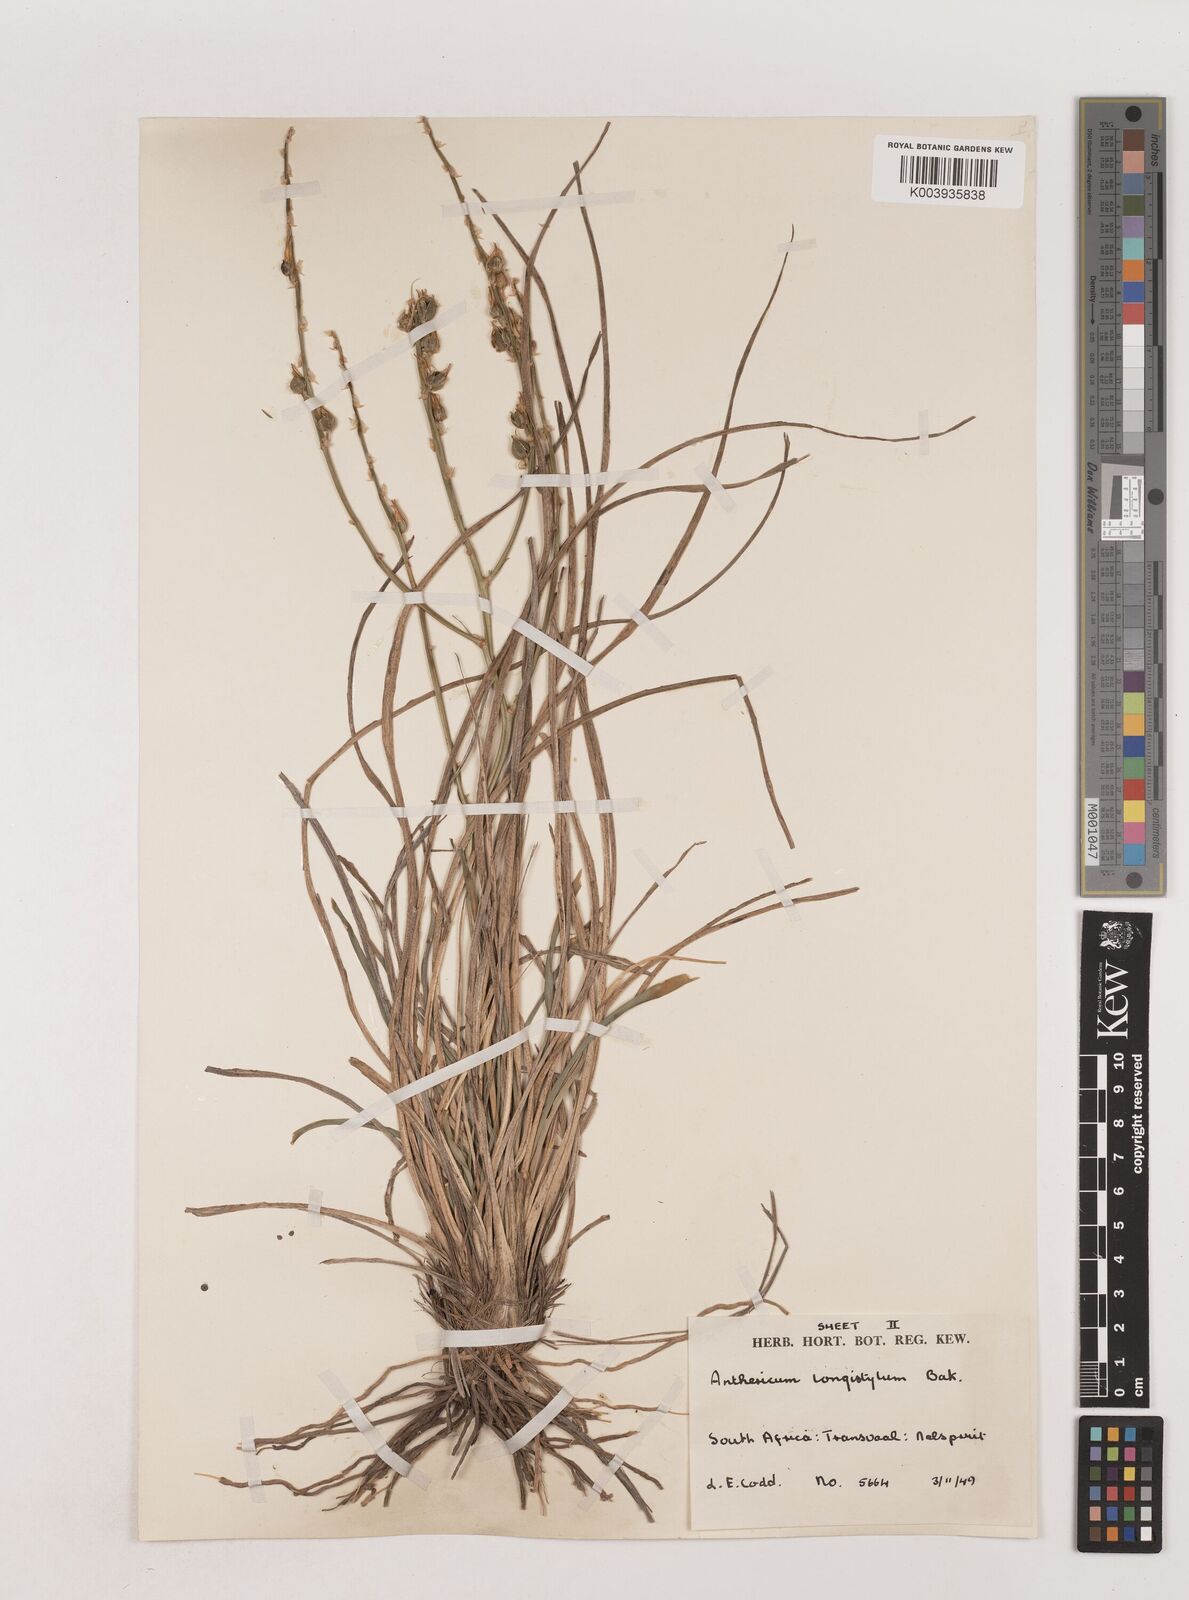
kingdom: Plantae
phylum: Tracheophyta
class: Liliopsida
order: Asparagales
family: Asparagaceae
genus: Chlorophytum
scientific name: Chlorophytum recurvifolium
